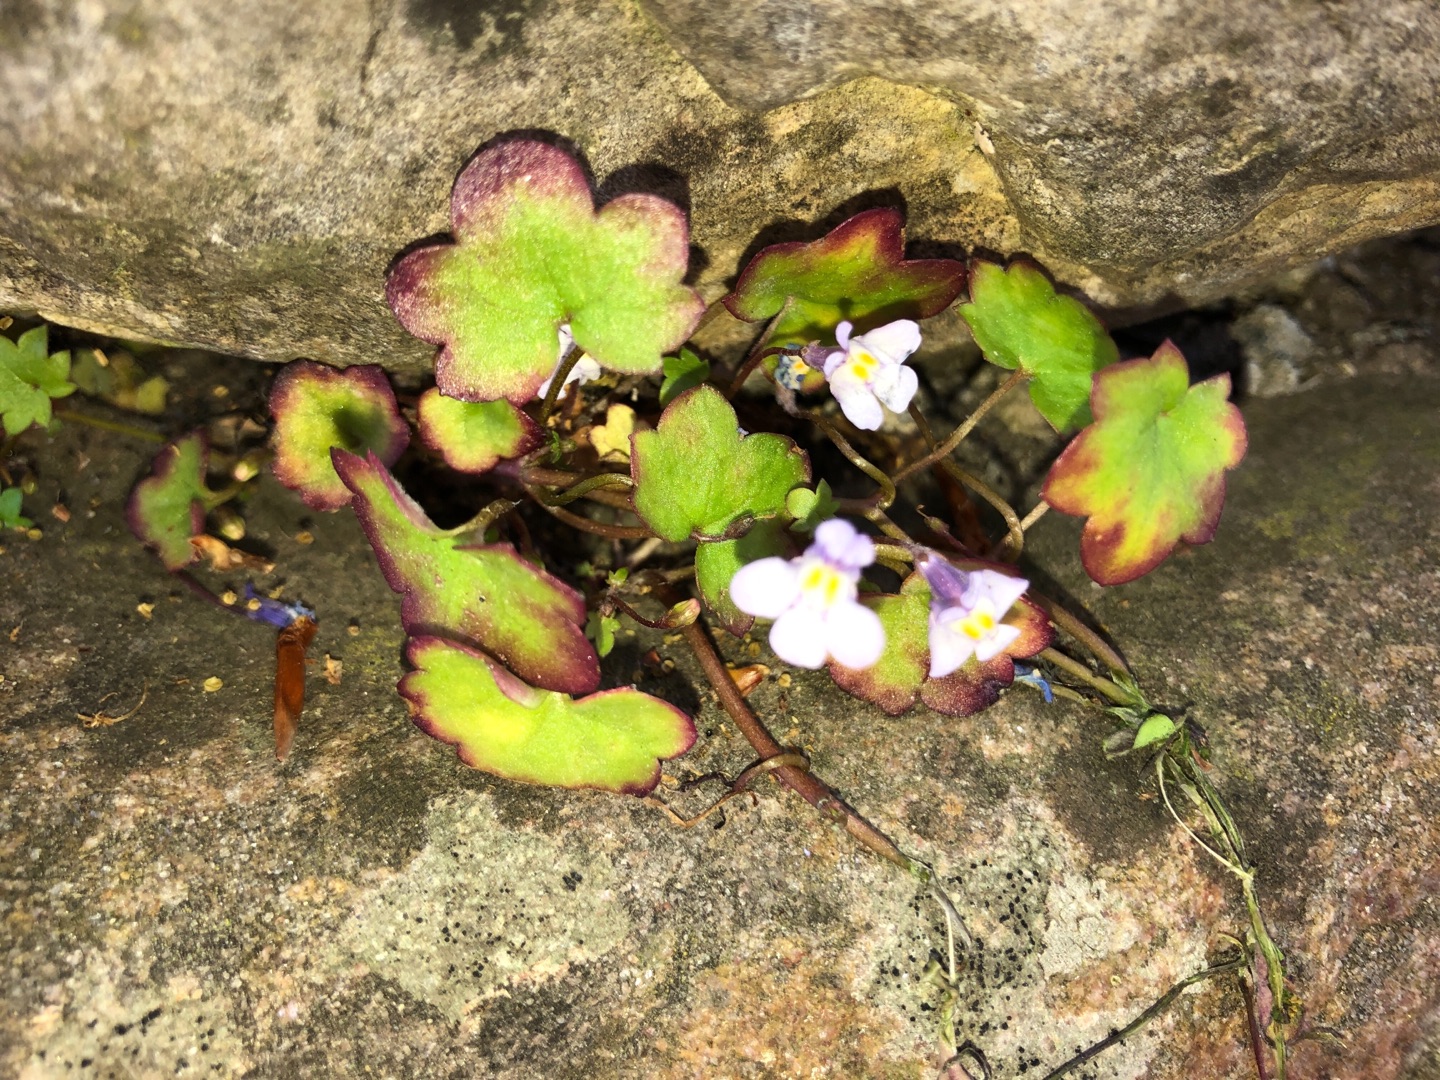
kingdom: Plantae
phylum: Tracheophyta
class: Magnoliopsida
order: Lamiales
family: Plantaginaceae
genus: Cymbalaria
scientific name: Cymbalaria muralis
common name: Vedbend-torskemund
